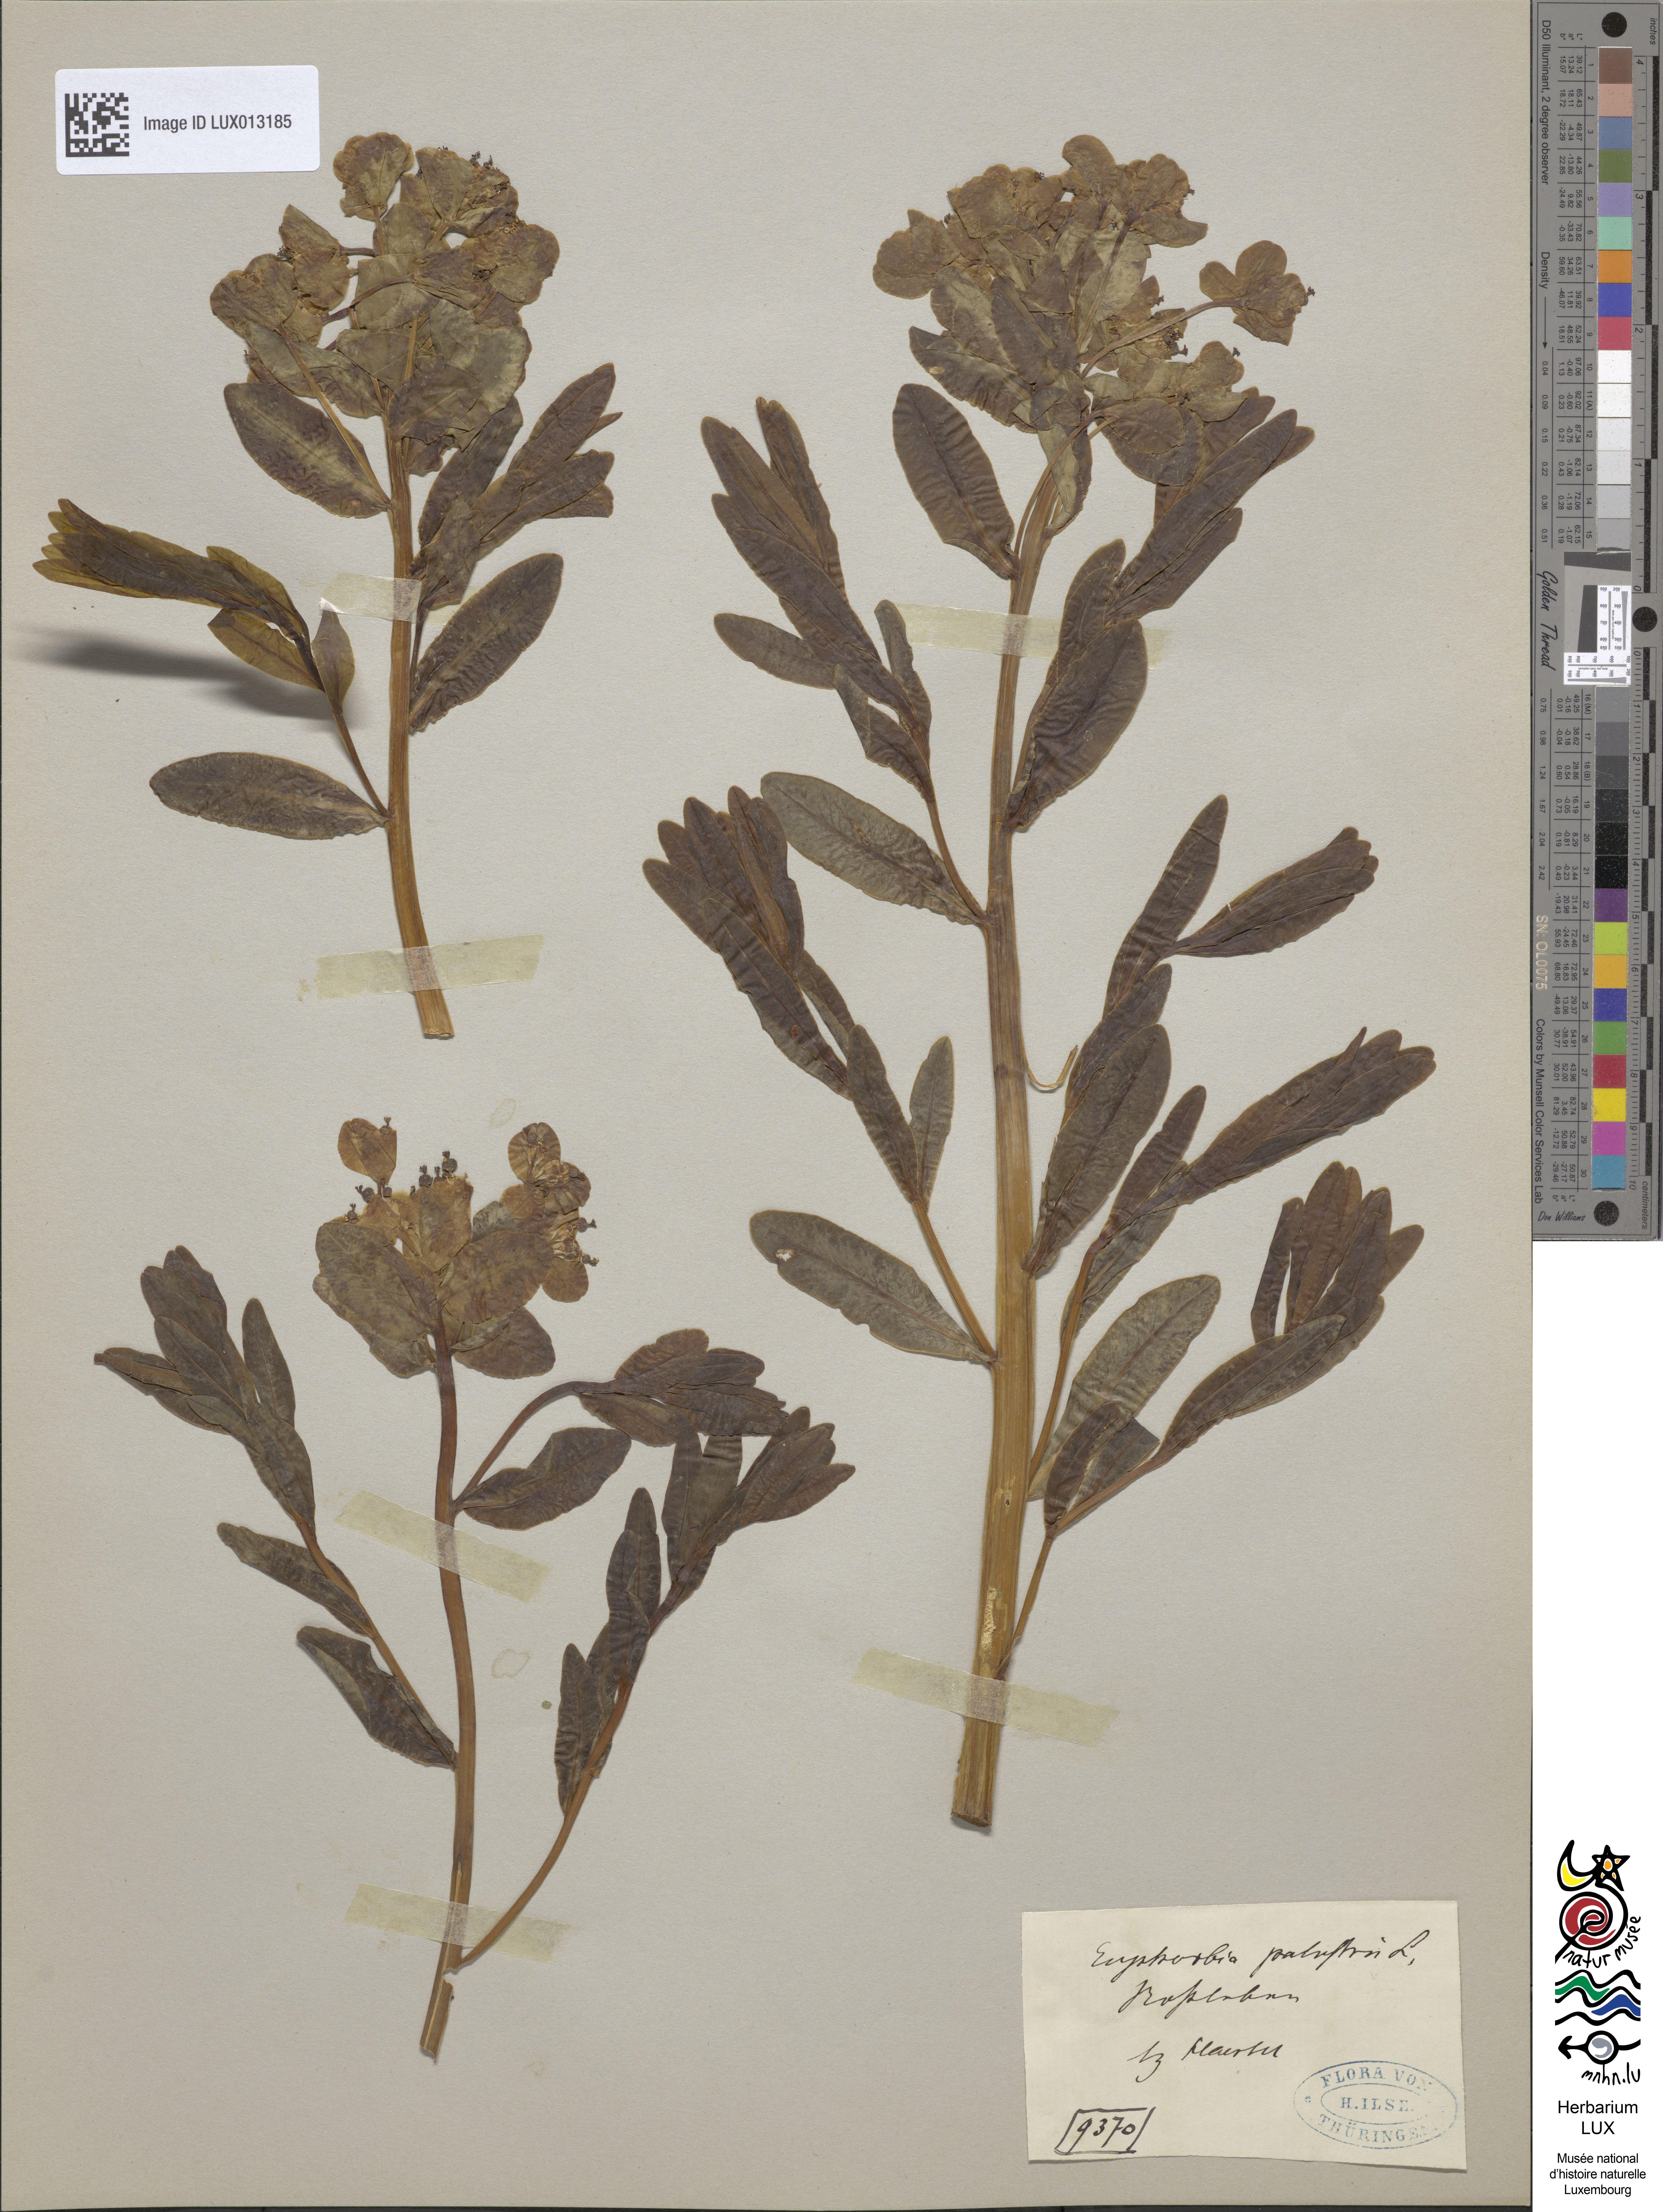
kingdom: Plantae
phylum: Tracheophyta
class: Magnoliopsida
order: Malpighiales
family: Euphorbiaceae
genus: Euphorbia
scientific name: Euphorbia palustris
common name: Marsh spurge
